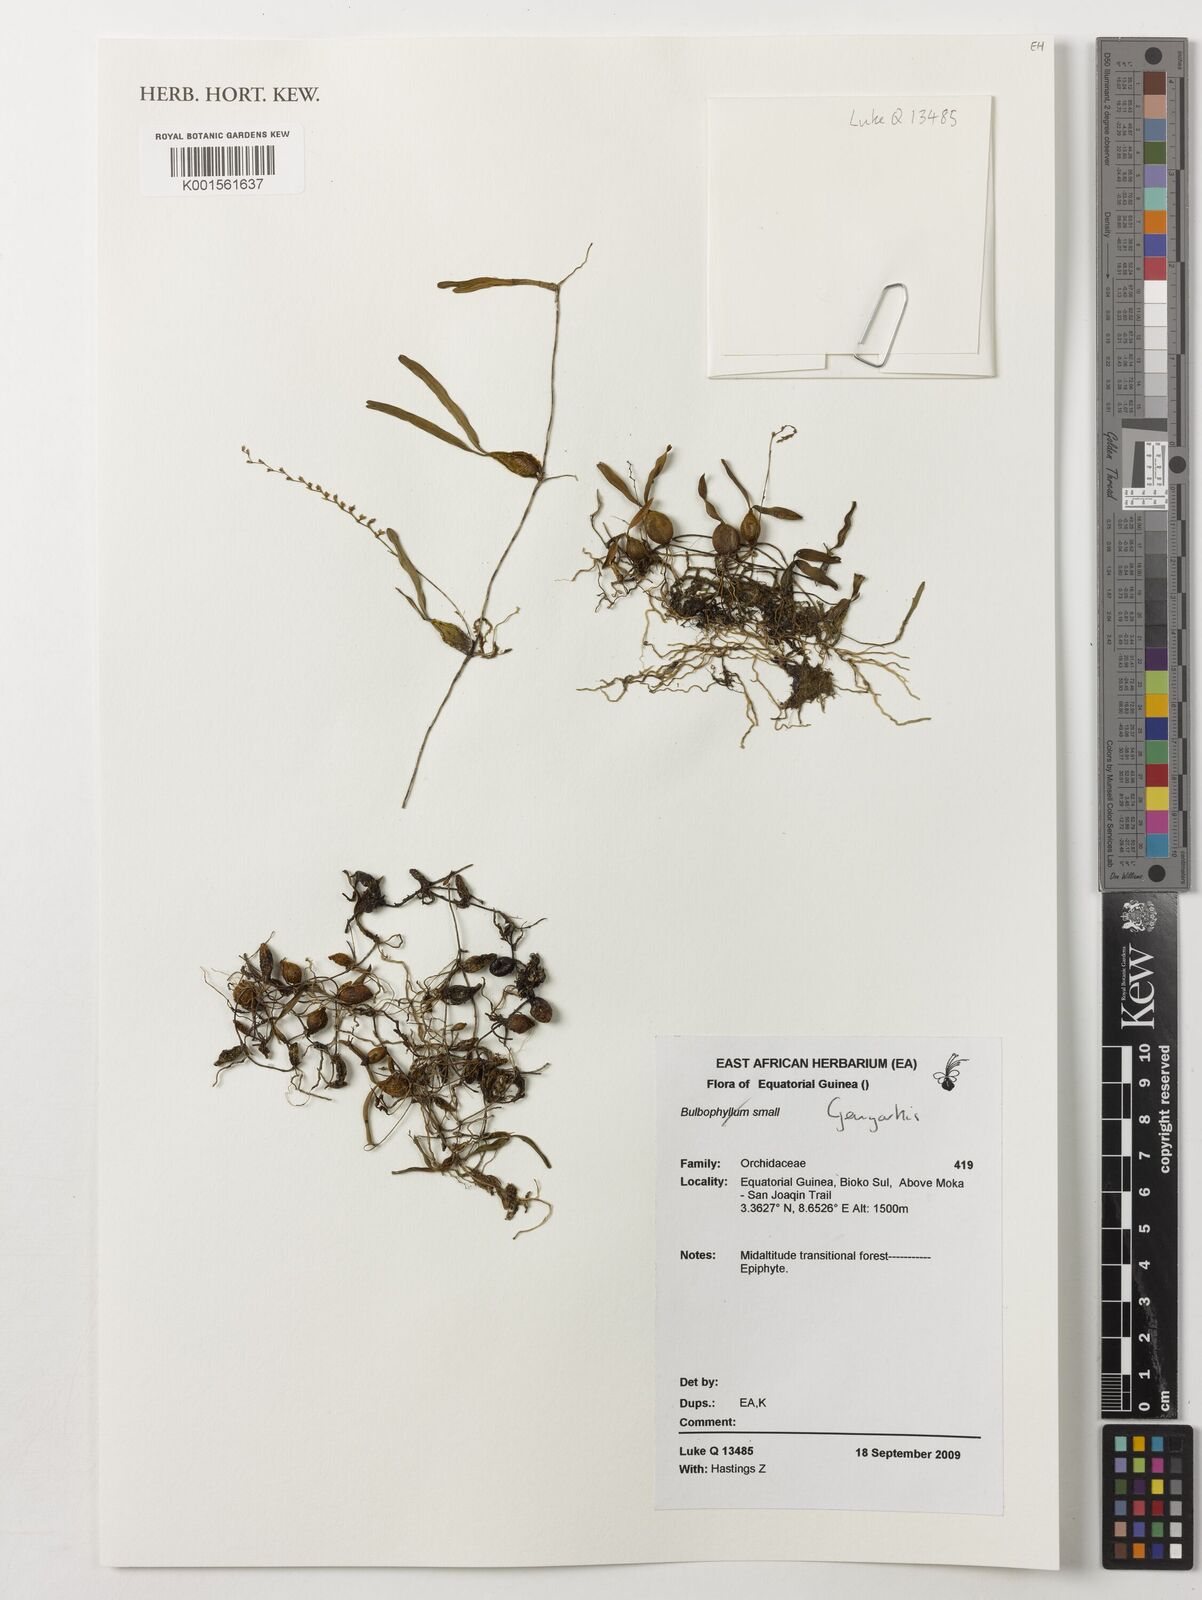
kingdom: Plantae
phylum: Tracheophyta
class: Liliopsida
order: Asparagales
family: Orchidaceae
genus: Bulbophyllum
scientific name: Bulbophyllum
